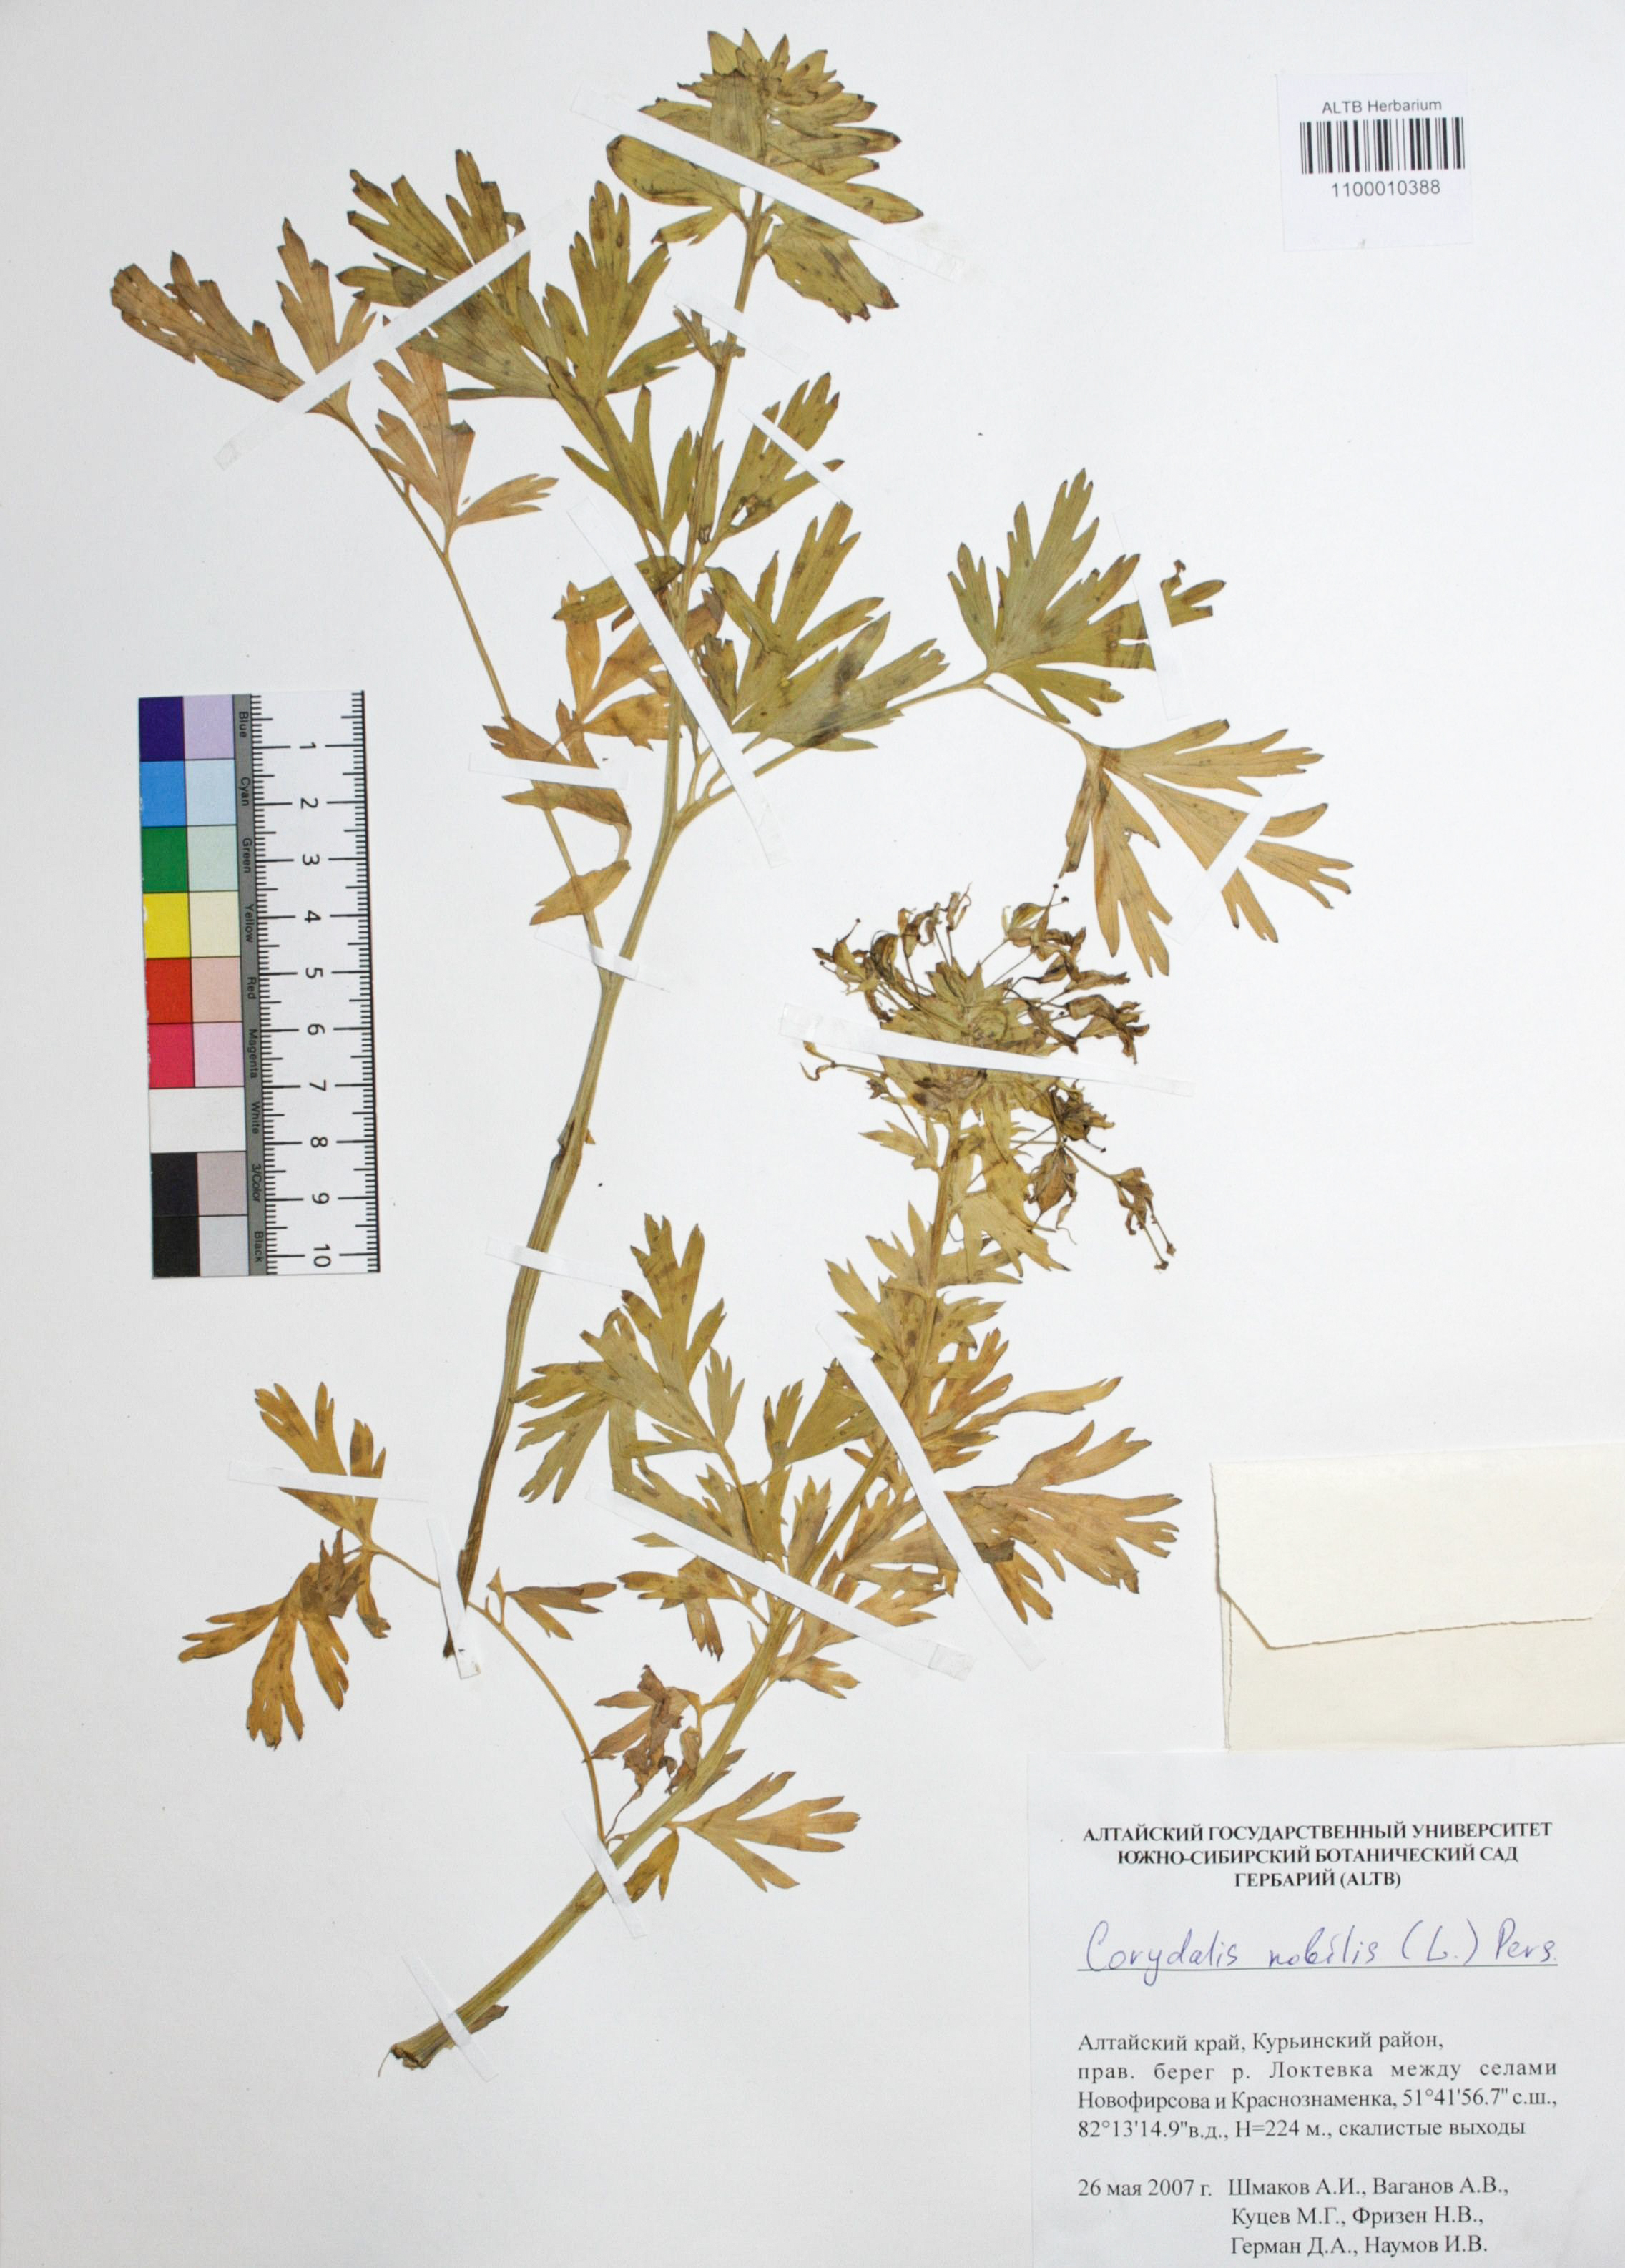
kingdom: Plantae
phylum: Tracheophyta
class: Magnoliopsida
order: Ranunculales
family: Papaveraceae
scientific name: Papaveraceae
